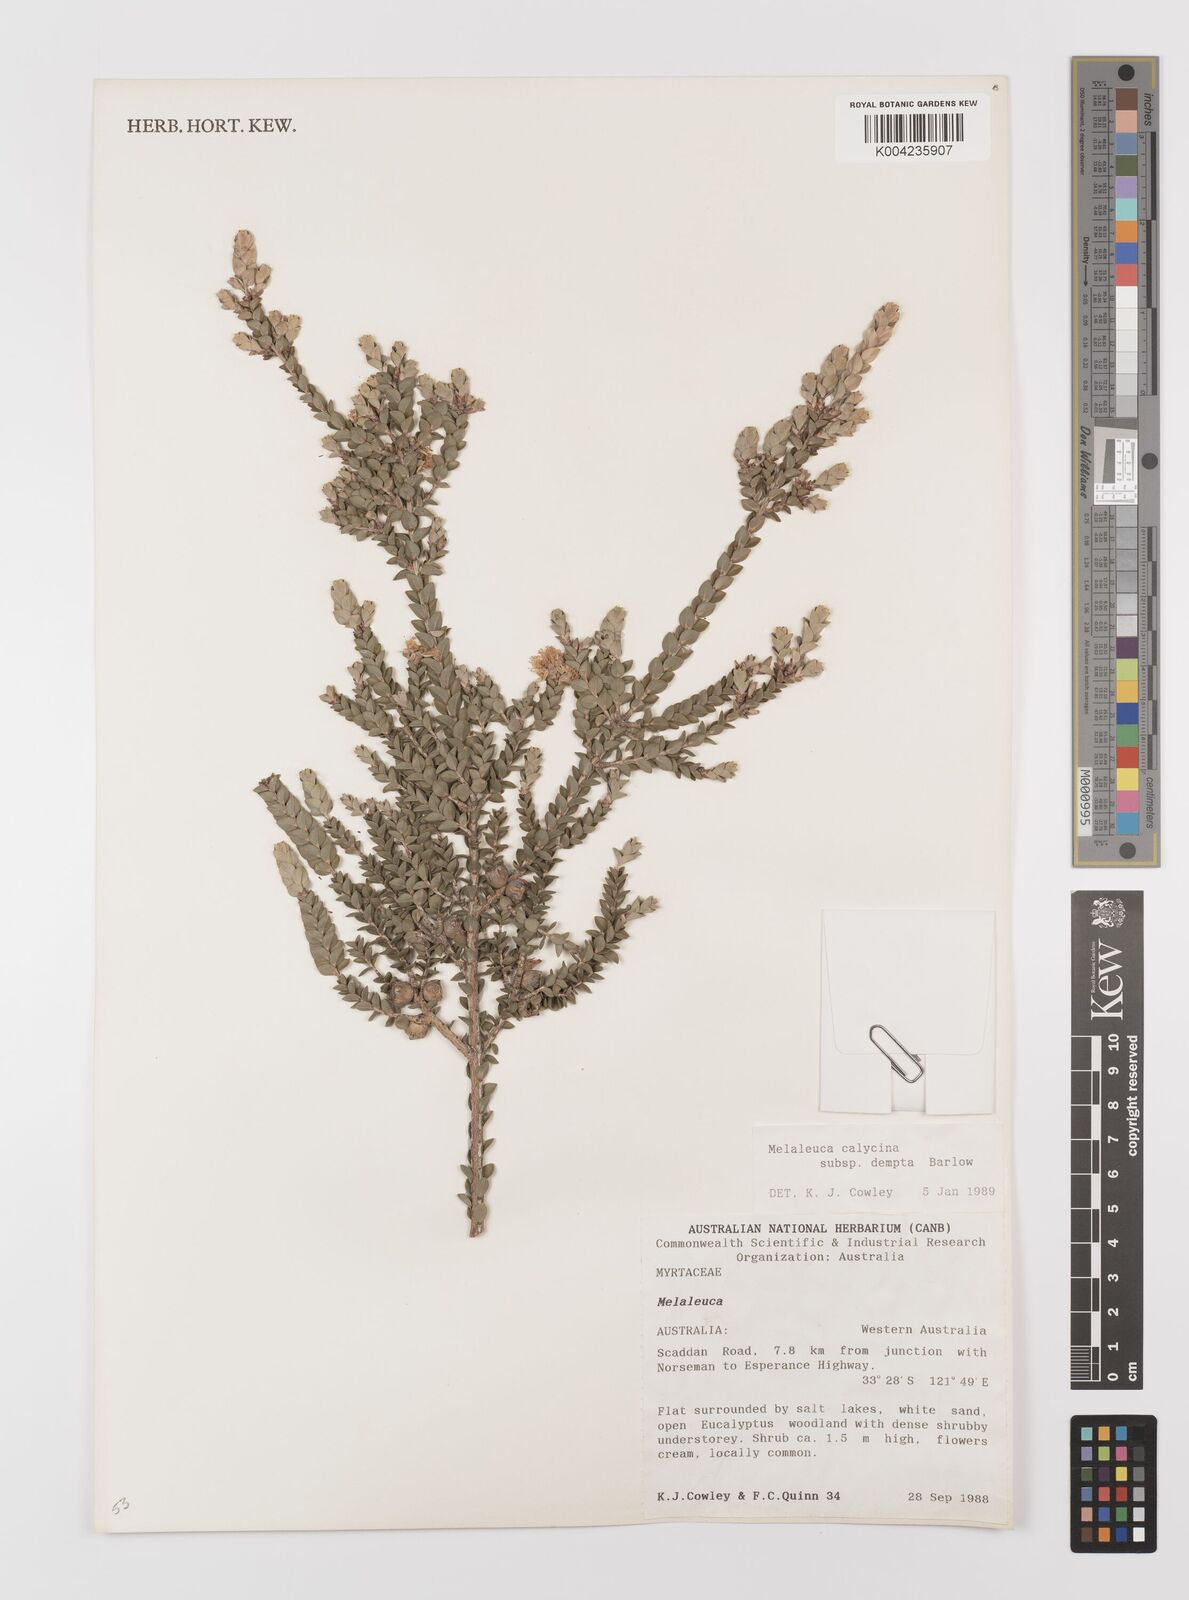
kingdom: Plantae
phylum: Tracheophyta
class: Magnoliopsida
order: Myrtales
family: Myrtaceae
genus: Melaleuca
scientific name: Melaleuca calycina
